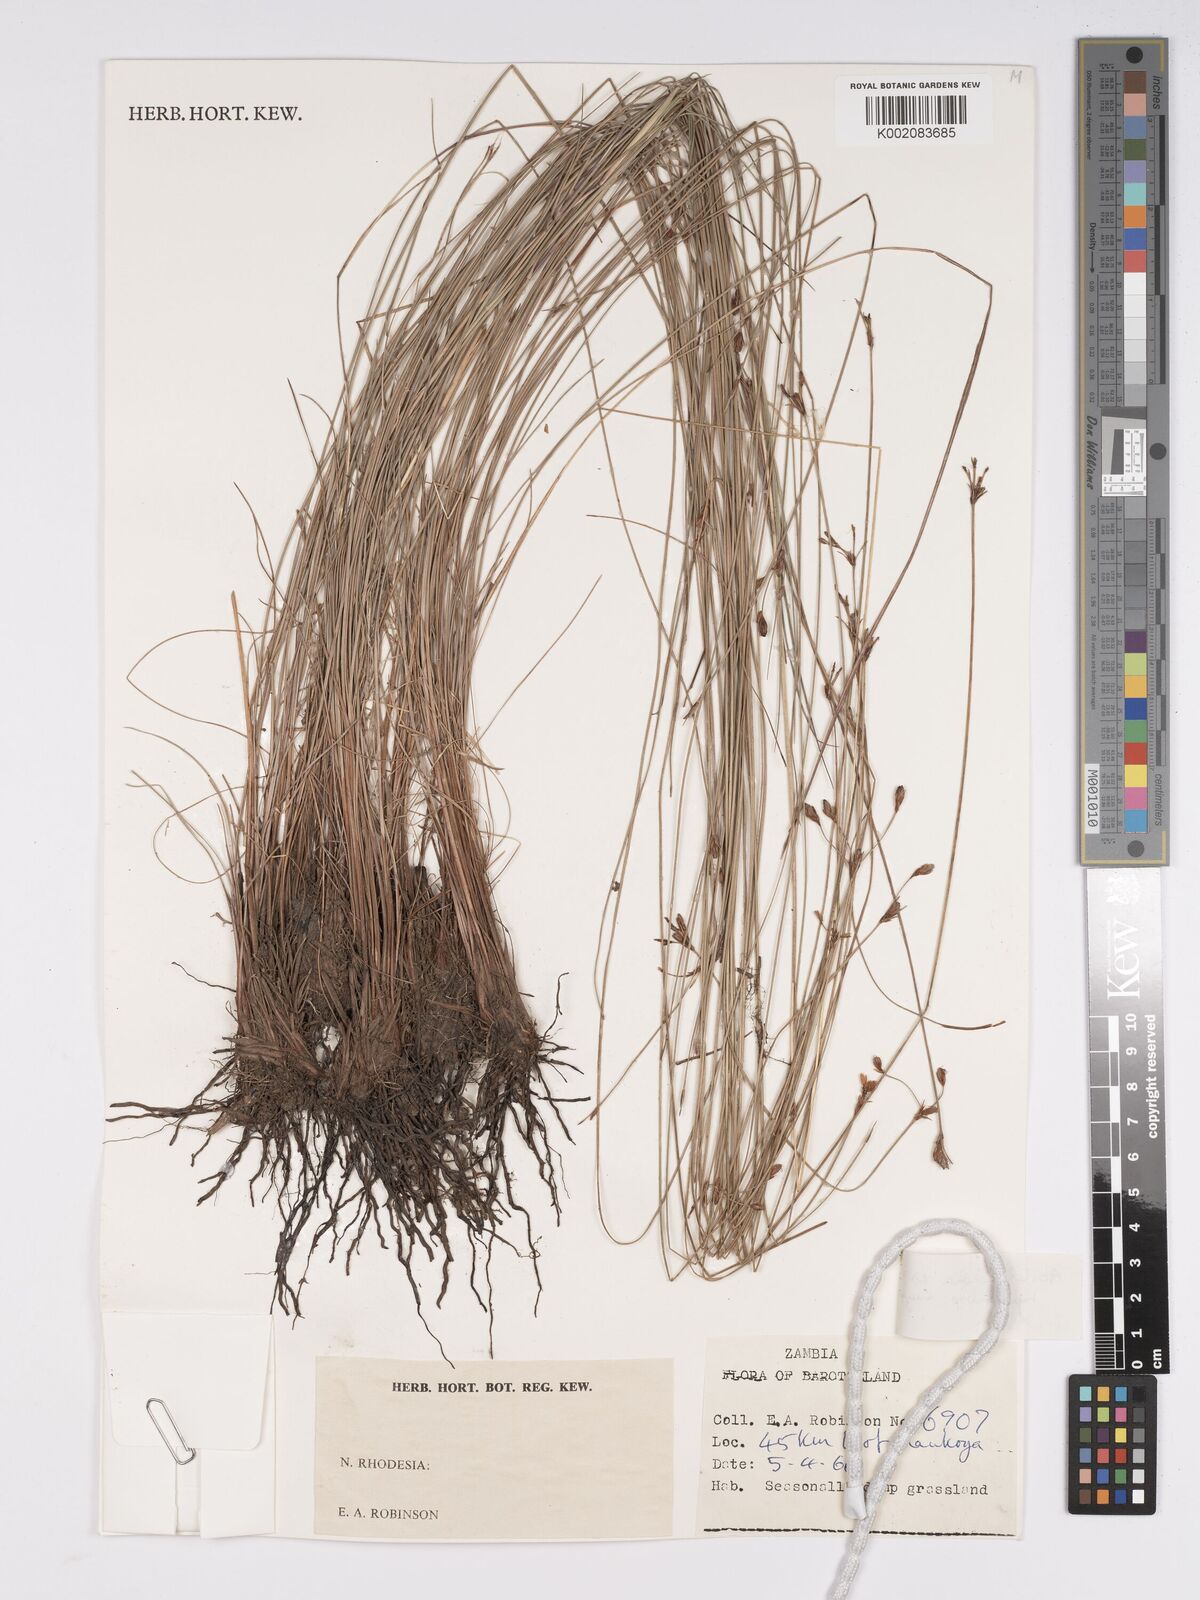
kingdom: Plantae
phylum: Tracheophyta
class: Liliopsida
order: Poales
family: Cyperaceae
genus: Bulbostylis
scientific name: Bulbostylis schoenoides
